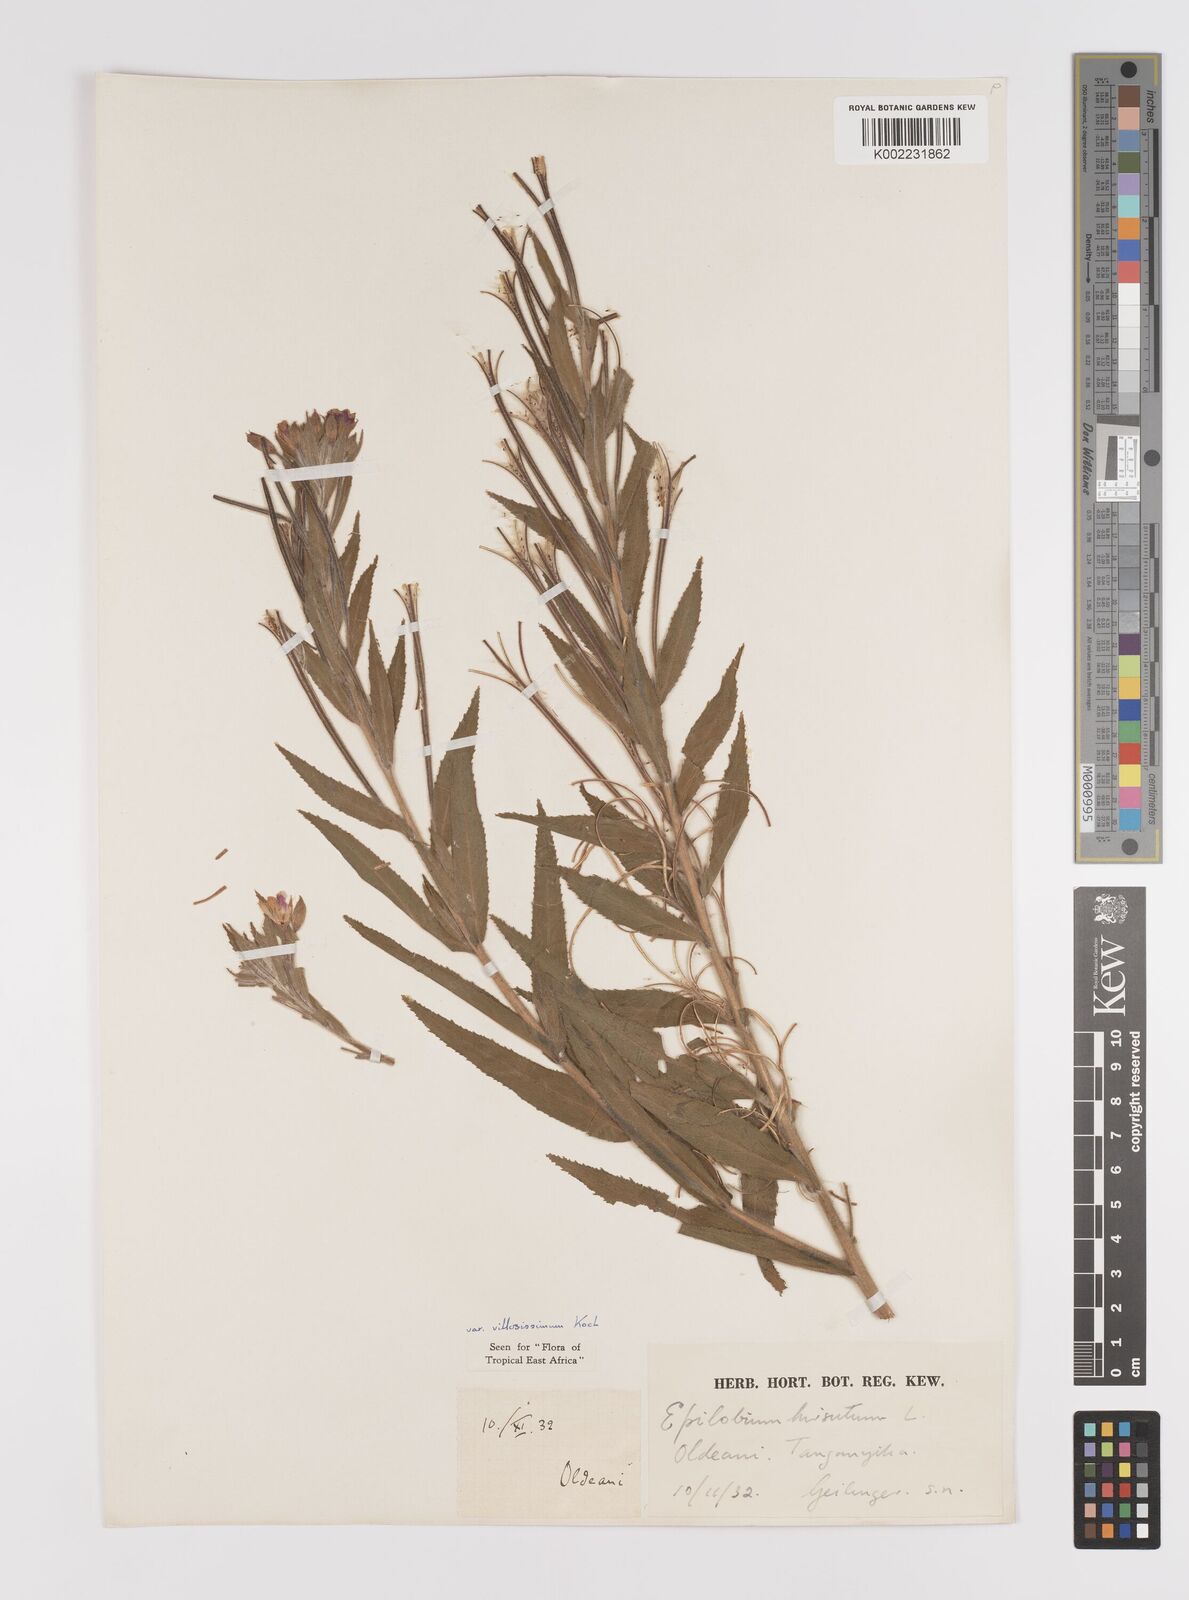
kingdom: Plantae
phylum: Tracheophyta
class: Magnoliopsida
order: Myrtales
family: Onagraceae
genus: Epilobium
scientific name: Epilobium hirsutum
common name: Great willowherb
